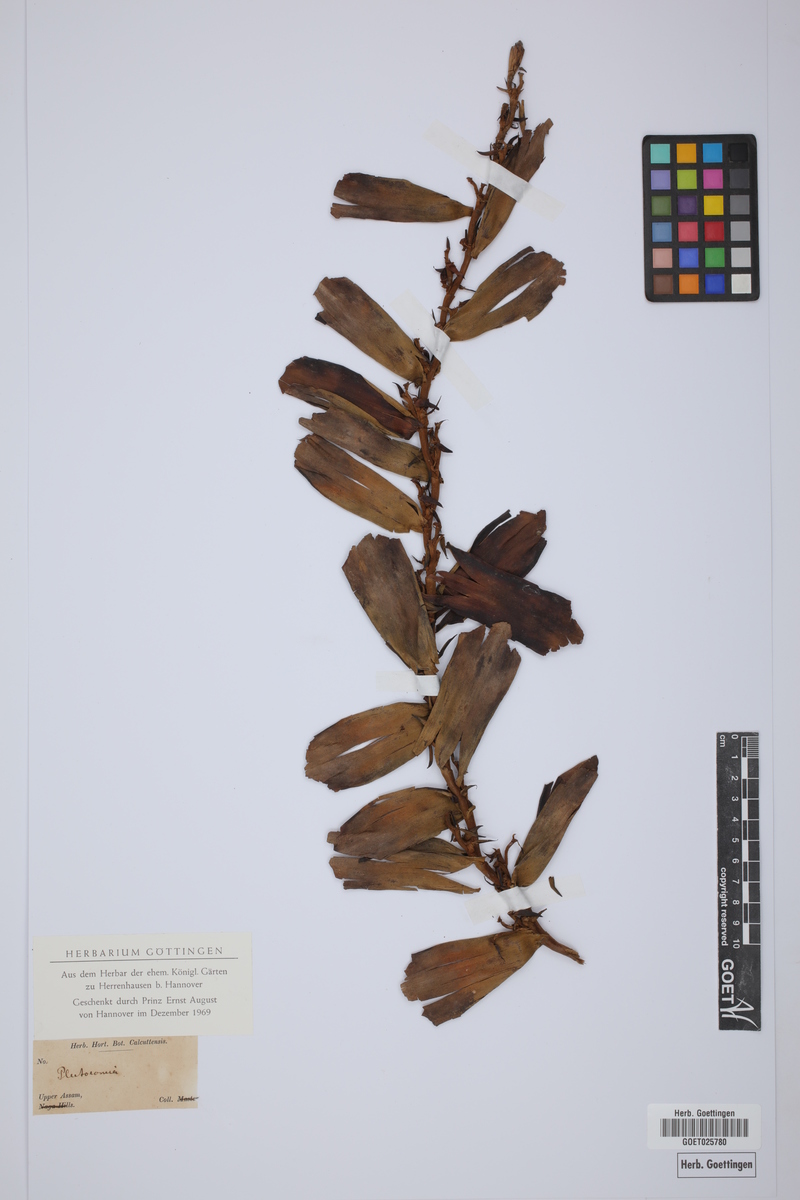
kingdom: Plantae
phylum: Tracheophyta
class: Liliopsida
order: Arecales
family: Arecaceae
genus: Plectocomia
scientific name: Plectocomia
